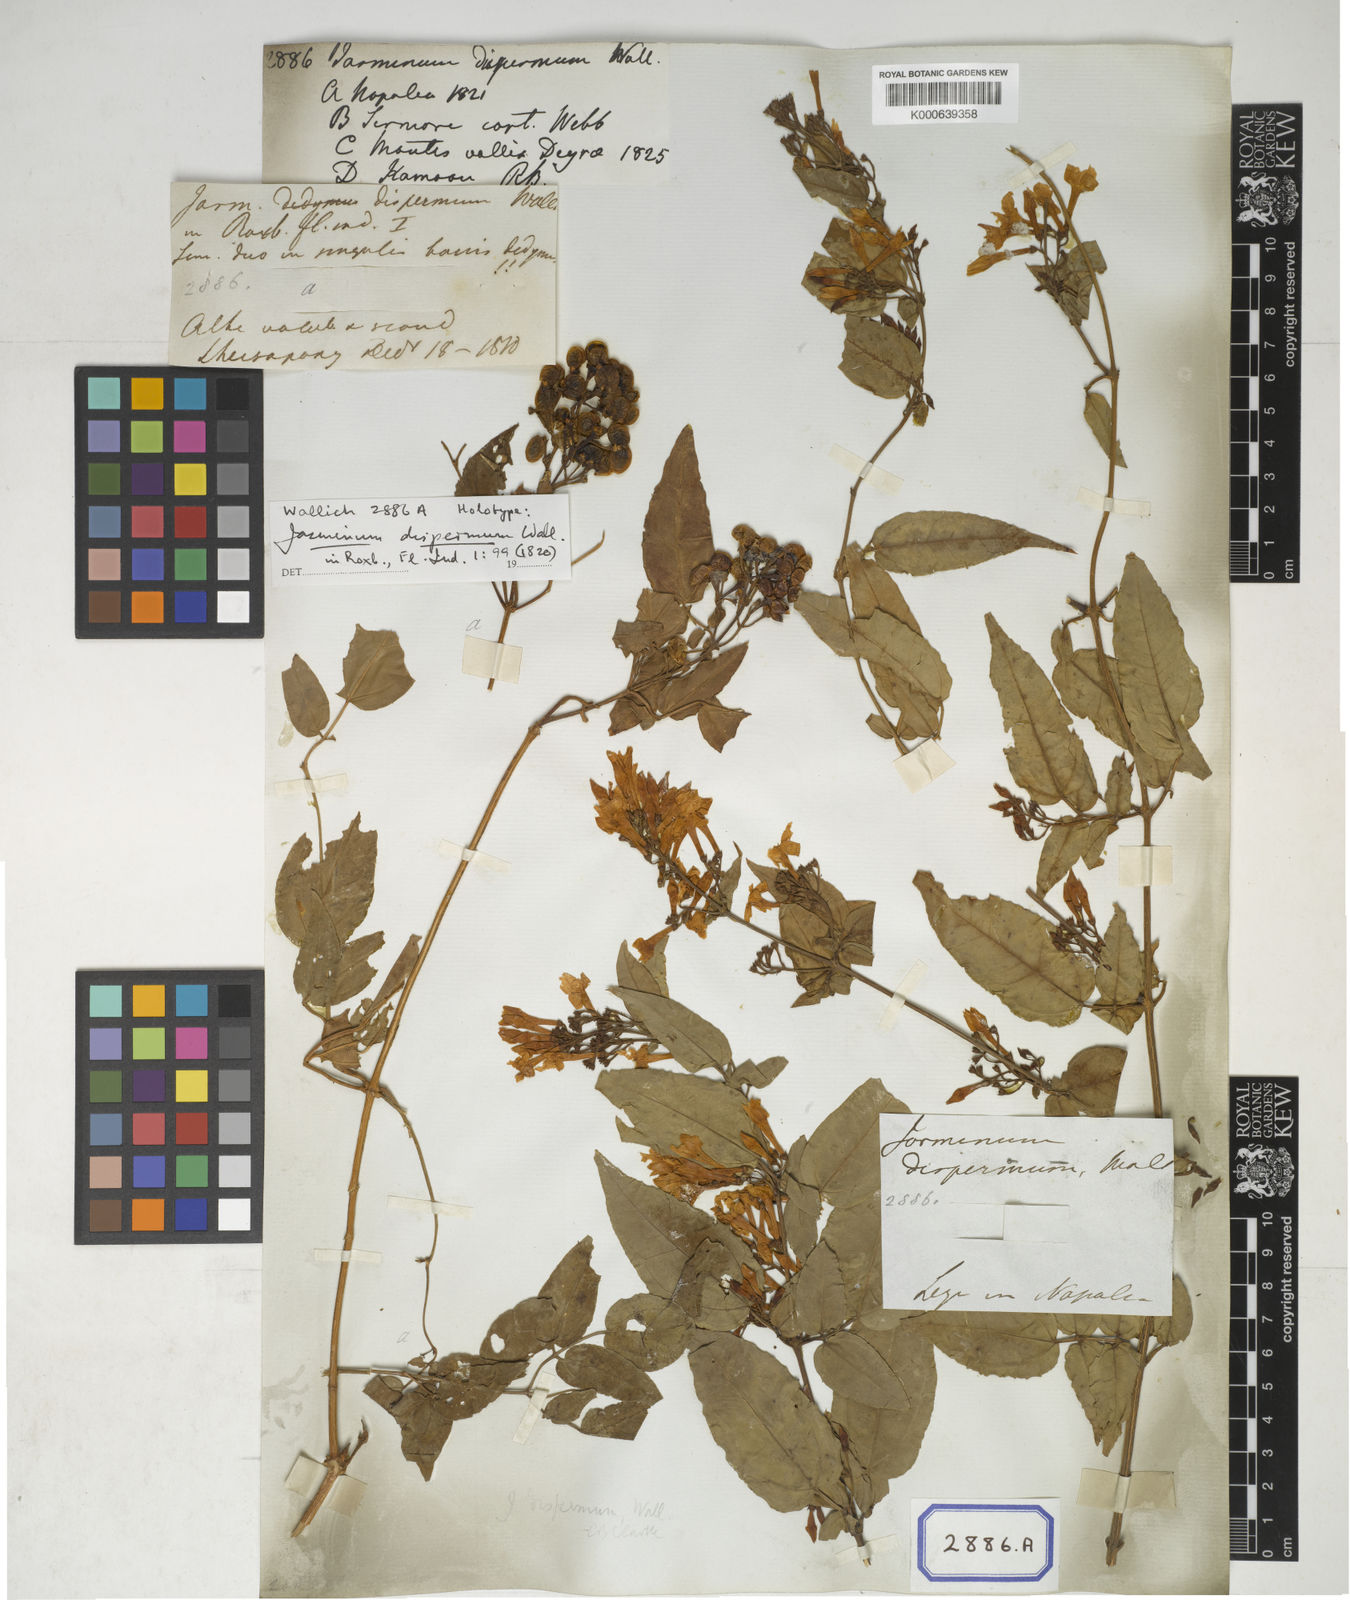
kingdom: Plantae
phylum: Tracheophyta
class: Magnoliopsida
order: Lamiales
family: Oleaceae
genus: Jasminum
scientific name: Jasminum dispermum
